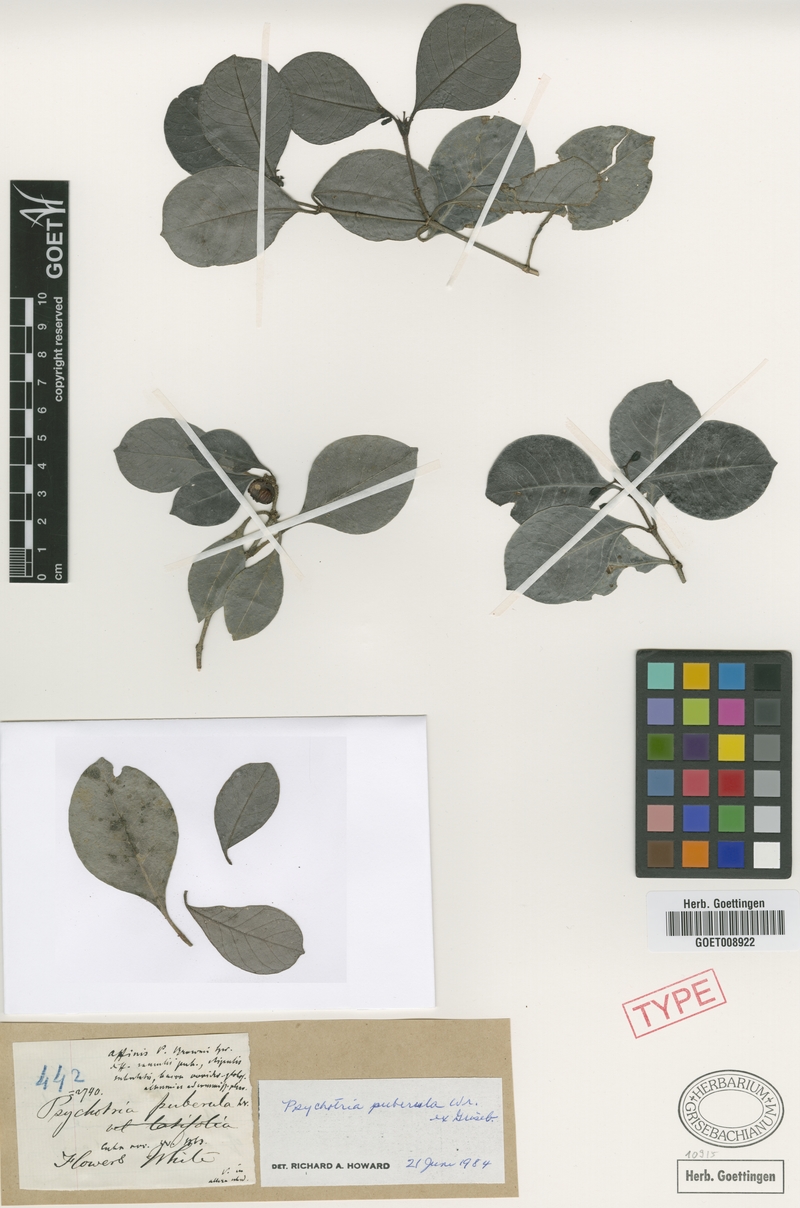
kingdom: Plantae
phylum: Tracheophyta
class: Magnoliopsida
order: Gentianales
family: Rubiaceae
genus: Psychotria
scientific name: Psychotria obovalis
